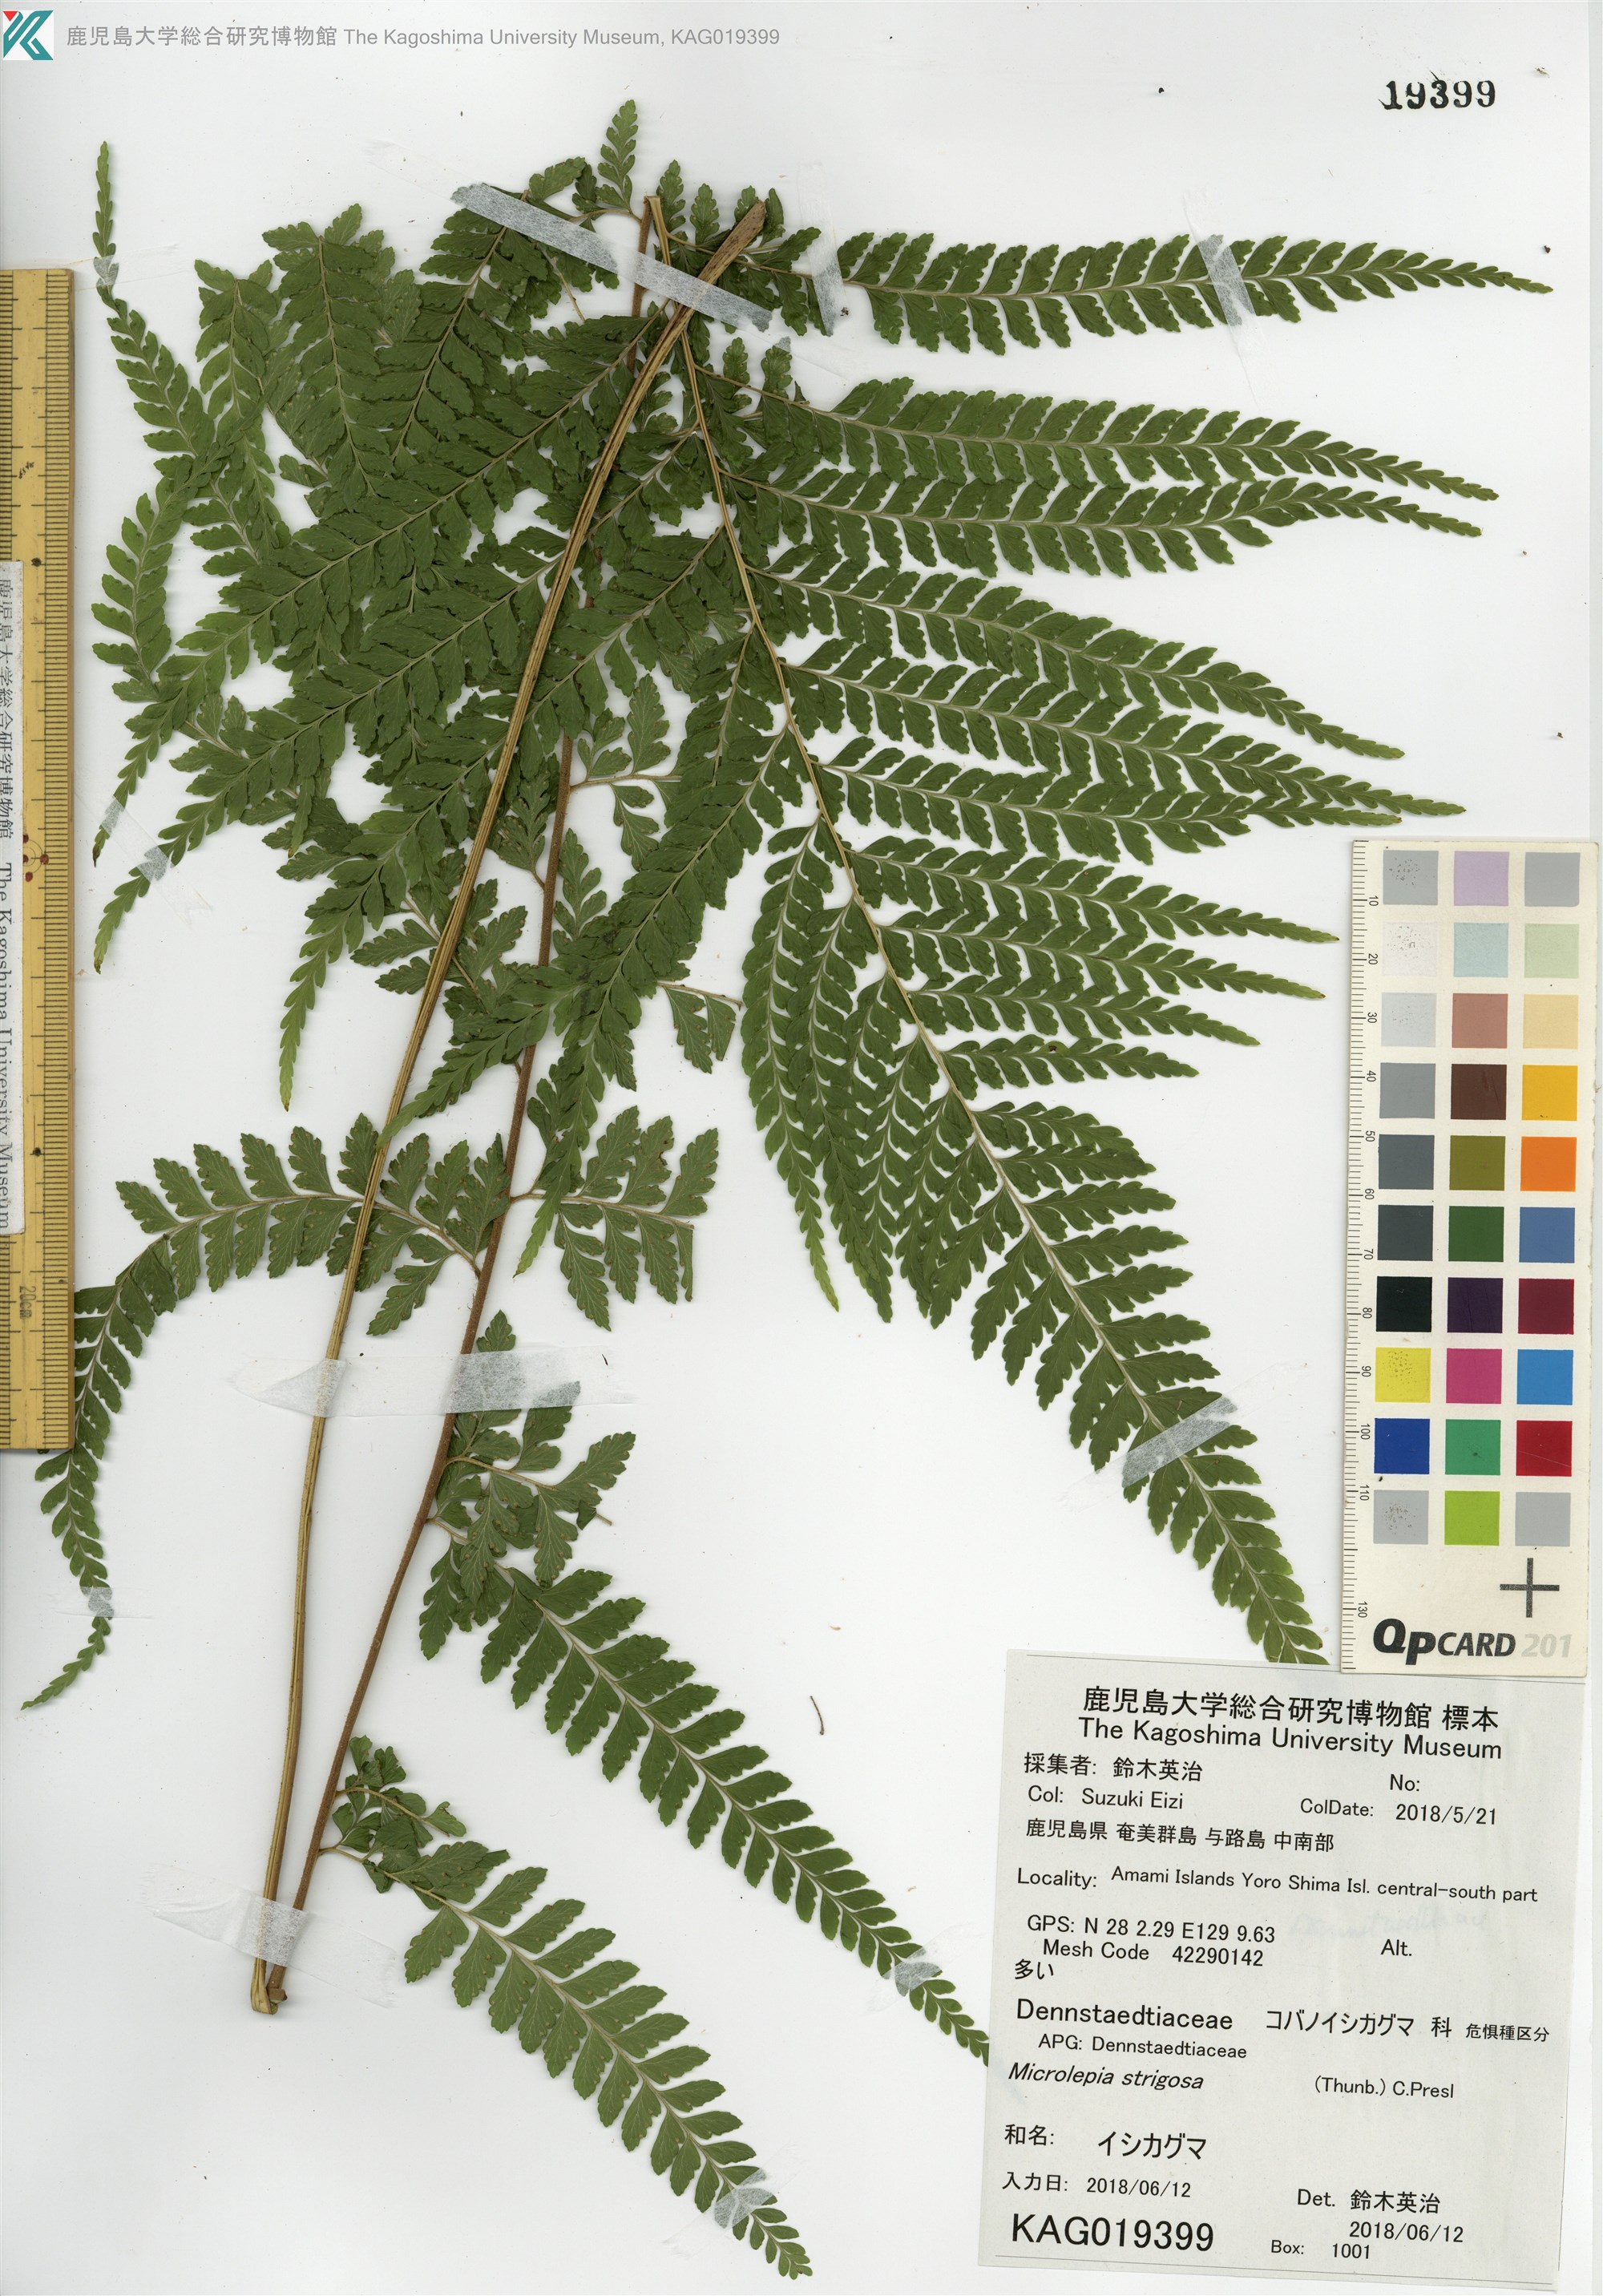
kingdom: Plantae
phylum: Tracheophyta
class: Polypodiopsida
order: Polypodiales
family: Dennstaedtiaceae
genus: Microlepia
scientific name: Microlepia strigosa
